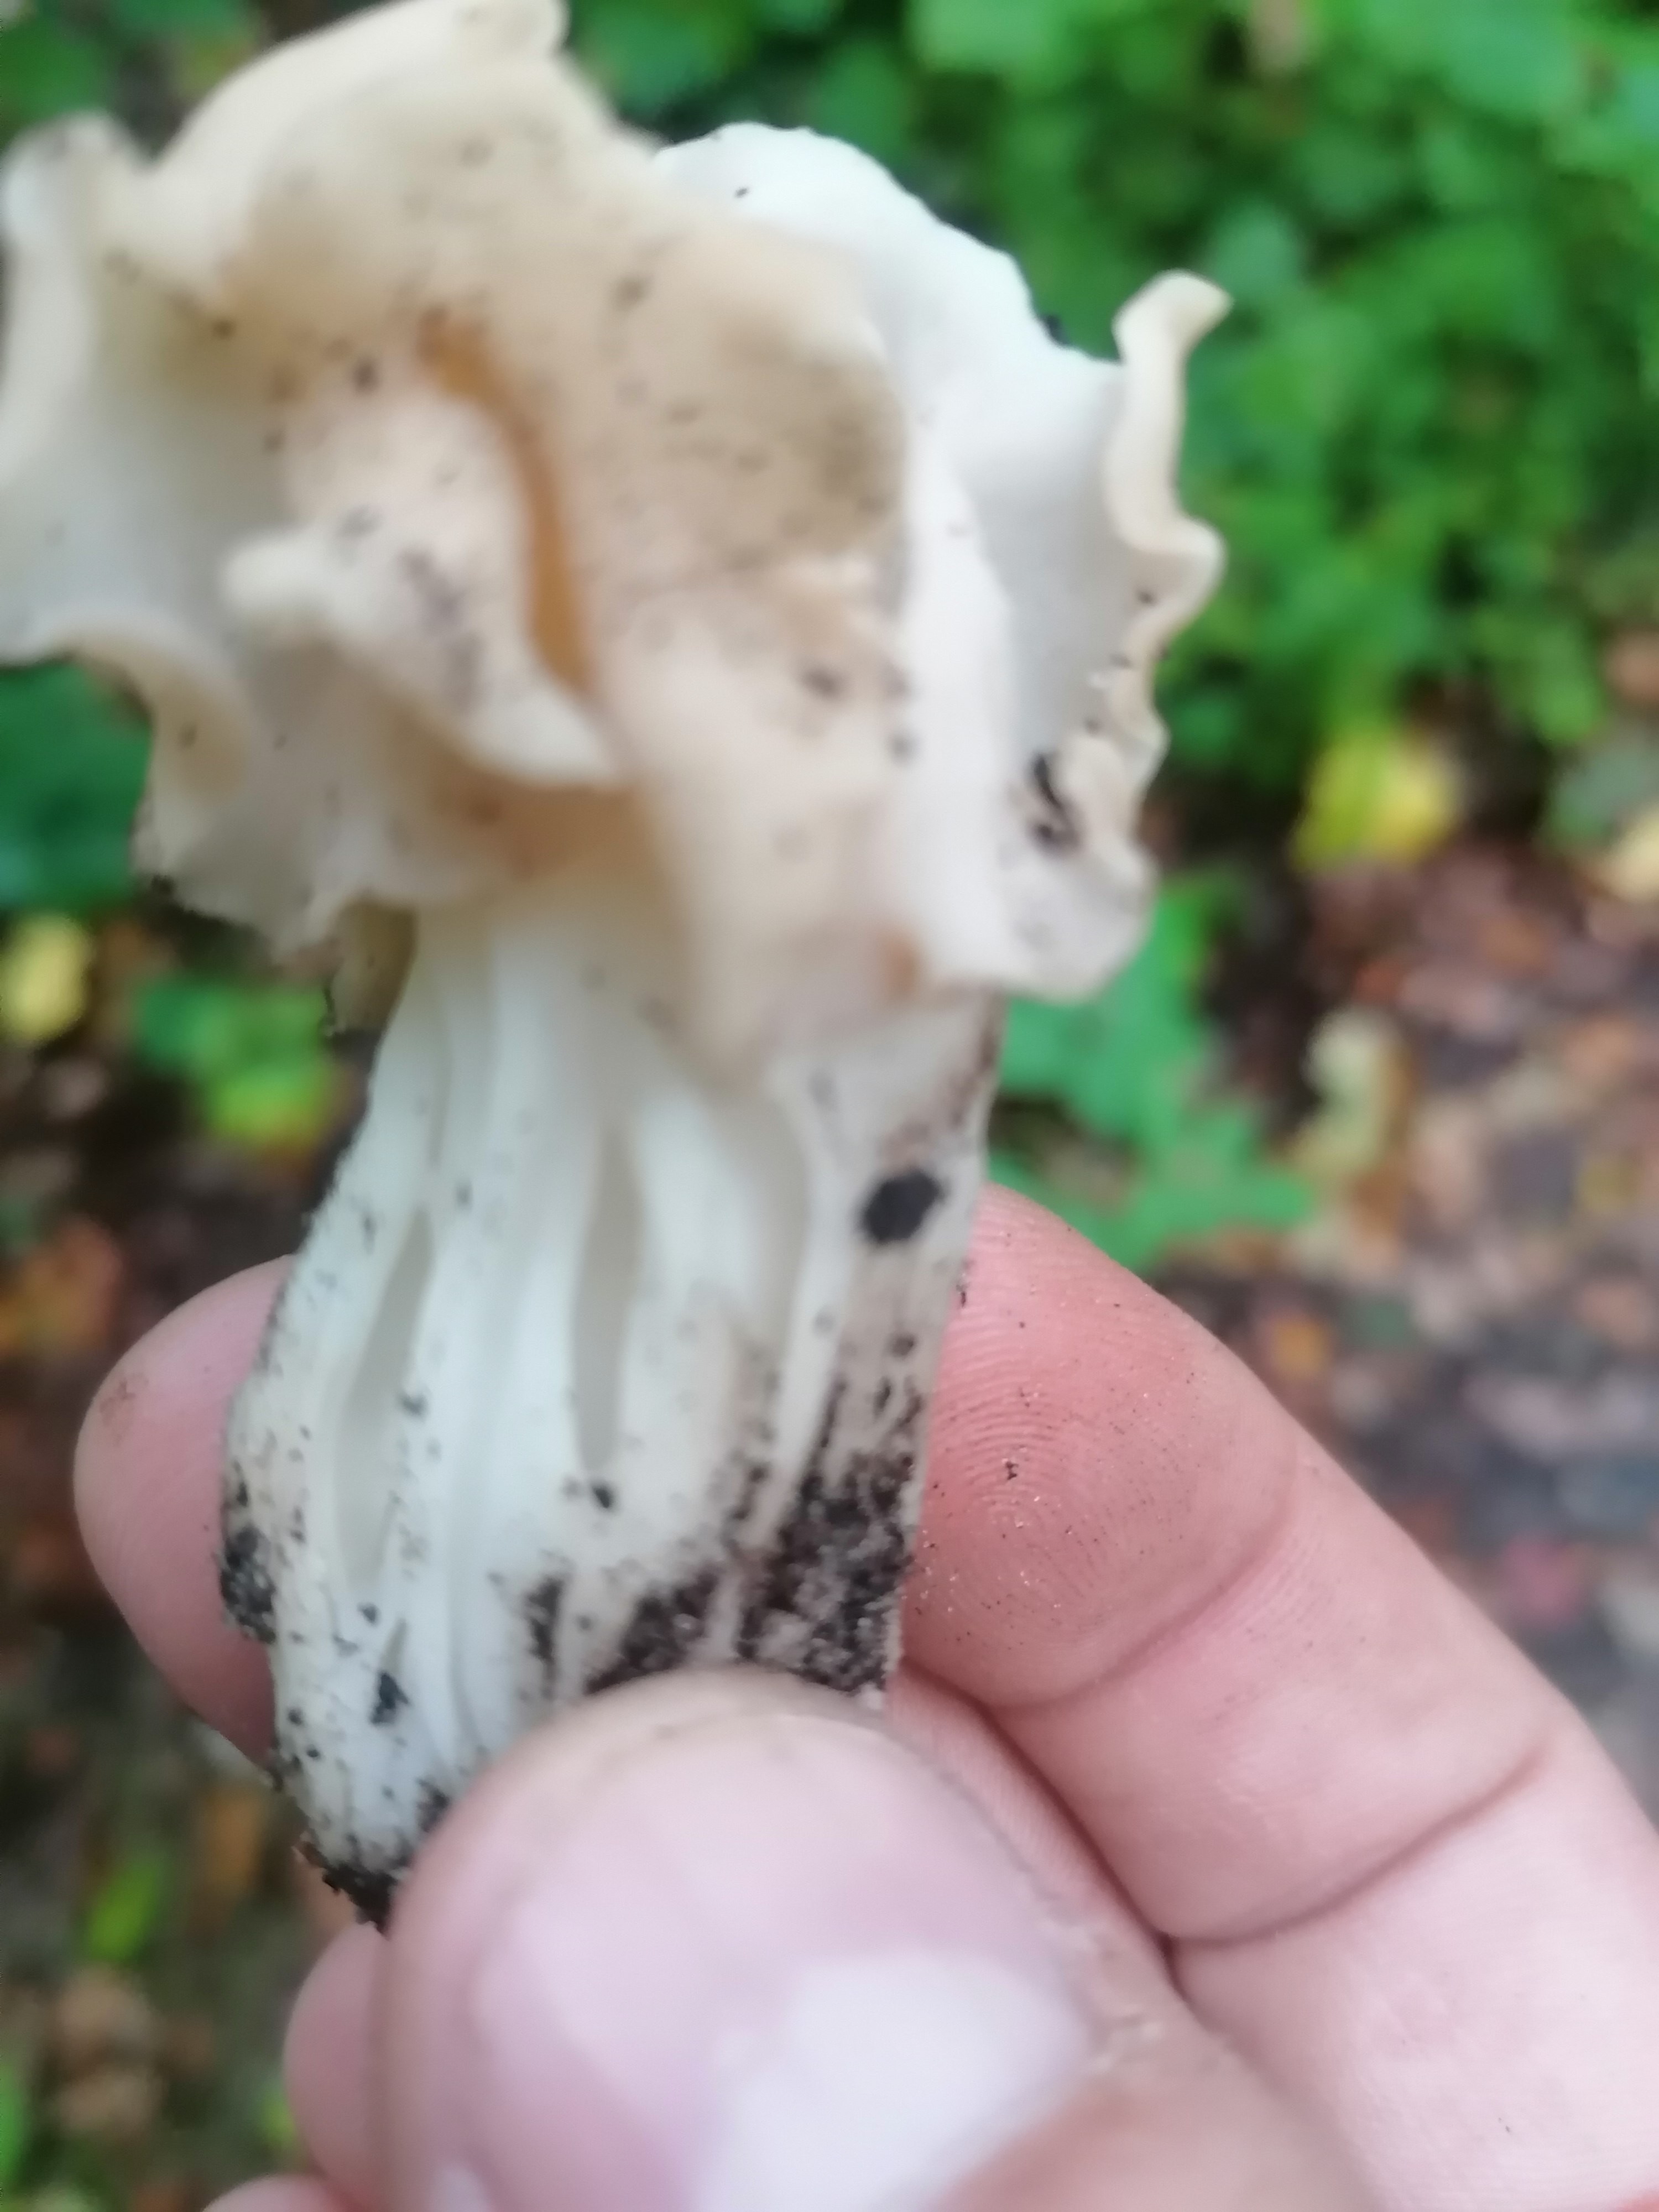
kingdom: Fungi
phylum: Ascomycota
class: Pezizomycetes
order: Pezizales
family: Helvellaceae
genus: Helvella
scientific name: Helvella crispa
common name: kruset foldhat
